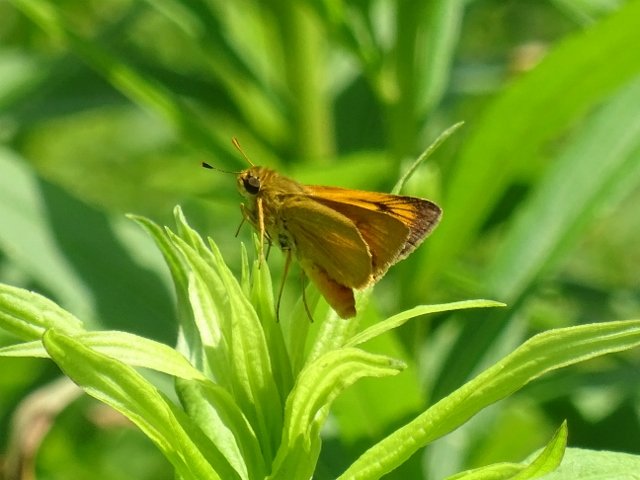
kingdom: Animalia
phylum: Arthropoda
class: Insecta
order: Lepidoptera
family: Hesperiidae
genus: Atrytone
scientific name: Atrytone delaware
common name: Delaware Skipper
